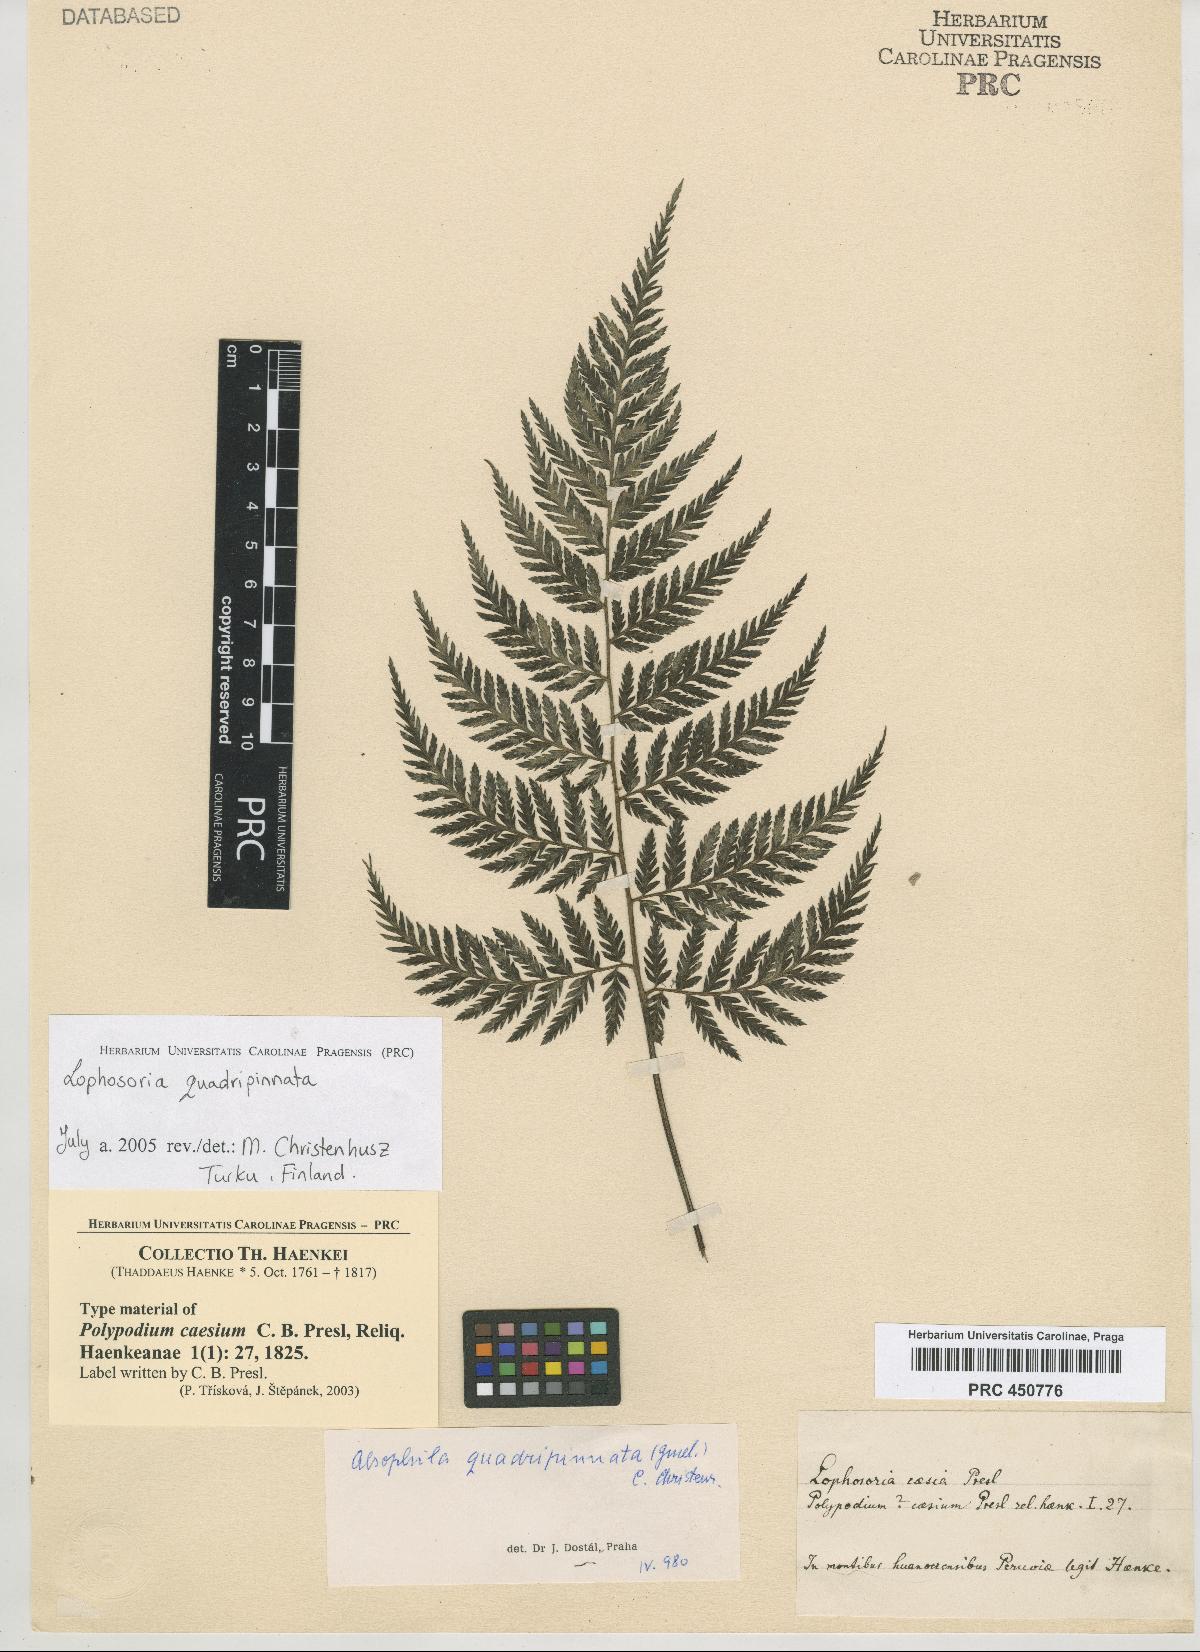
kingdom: Plantae
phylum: Tracheophyta
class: Polypodiopsida
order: Cyatheales
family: Dicksoniaceae
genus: Lophosoria
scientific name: Lophosoria quadripinnata
